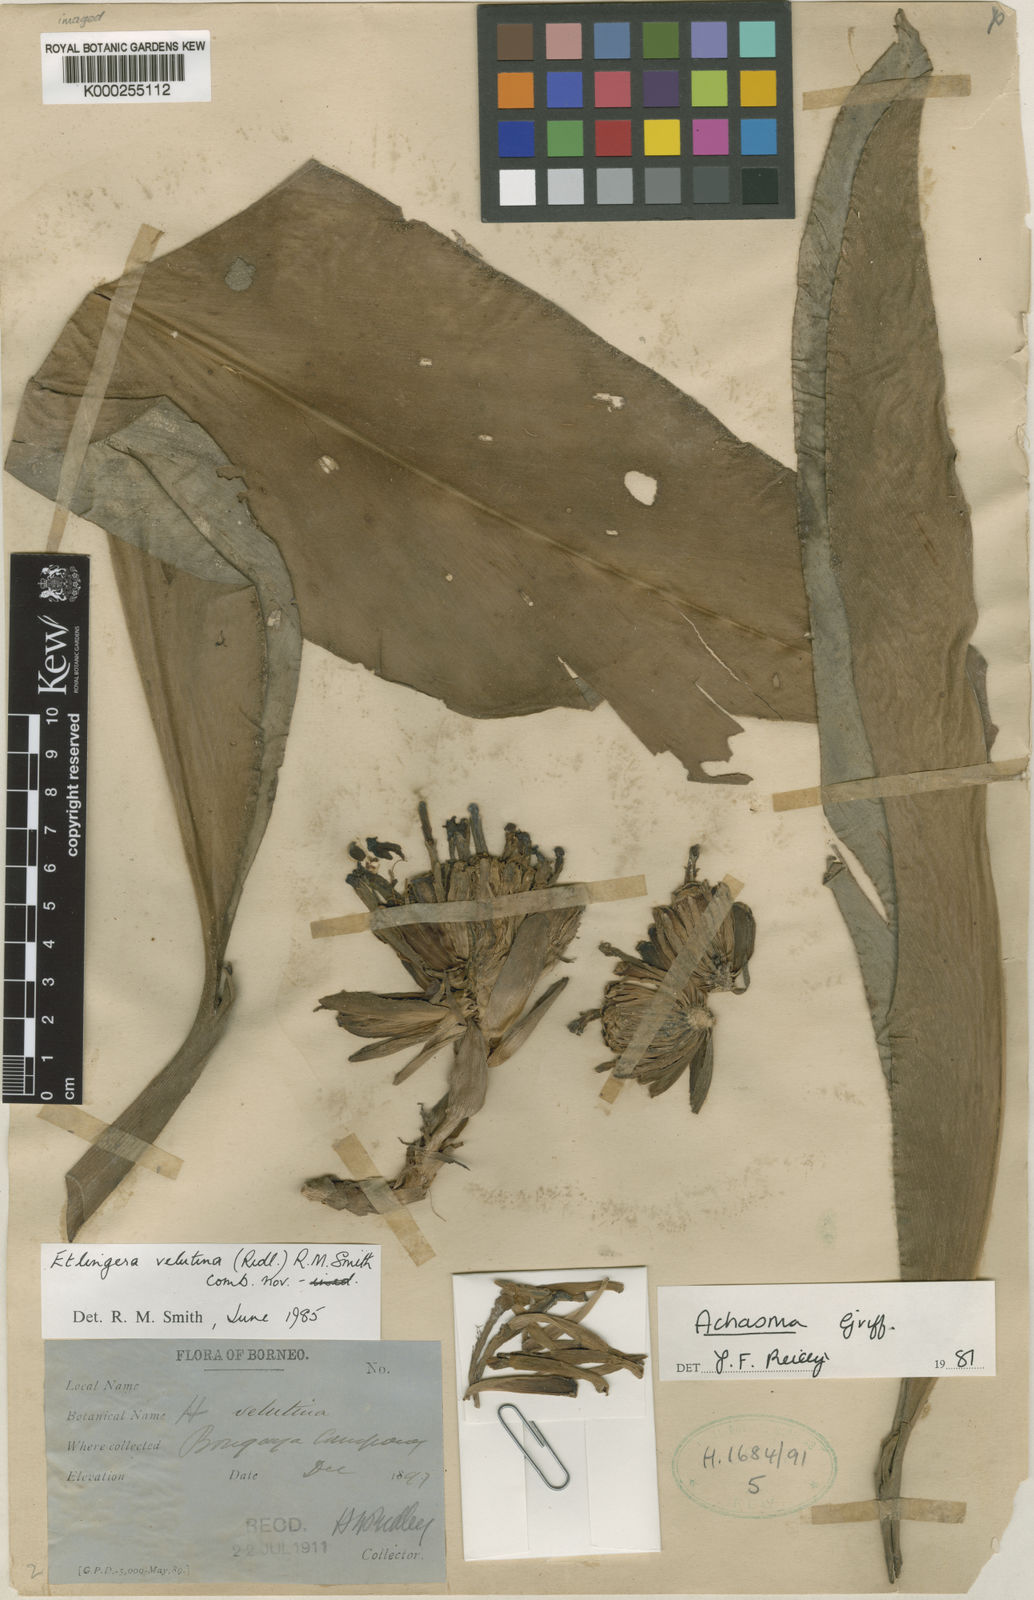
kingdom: Plantae
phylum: Tracheophyta
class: Liliopsida
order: Zingiberales
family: Zingiberaceae
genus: Etlingera
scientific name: Etlingera velutina
